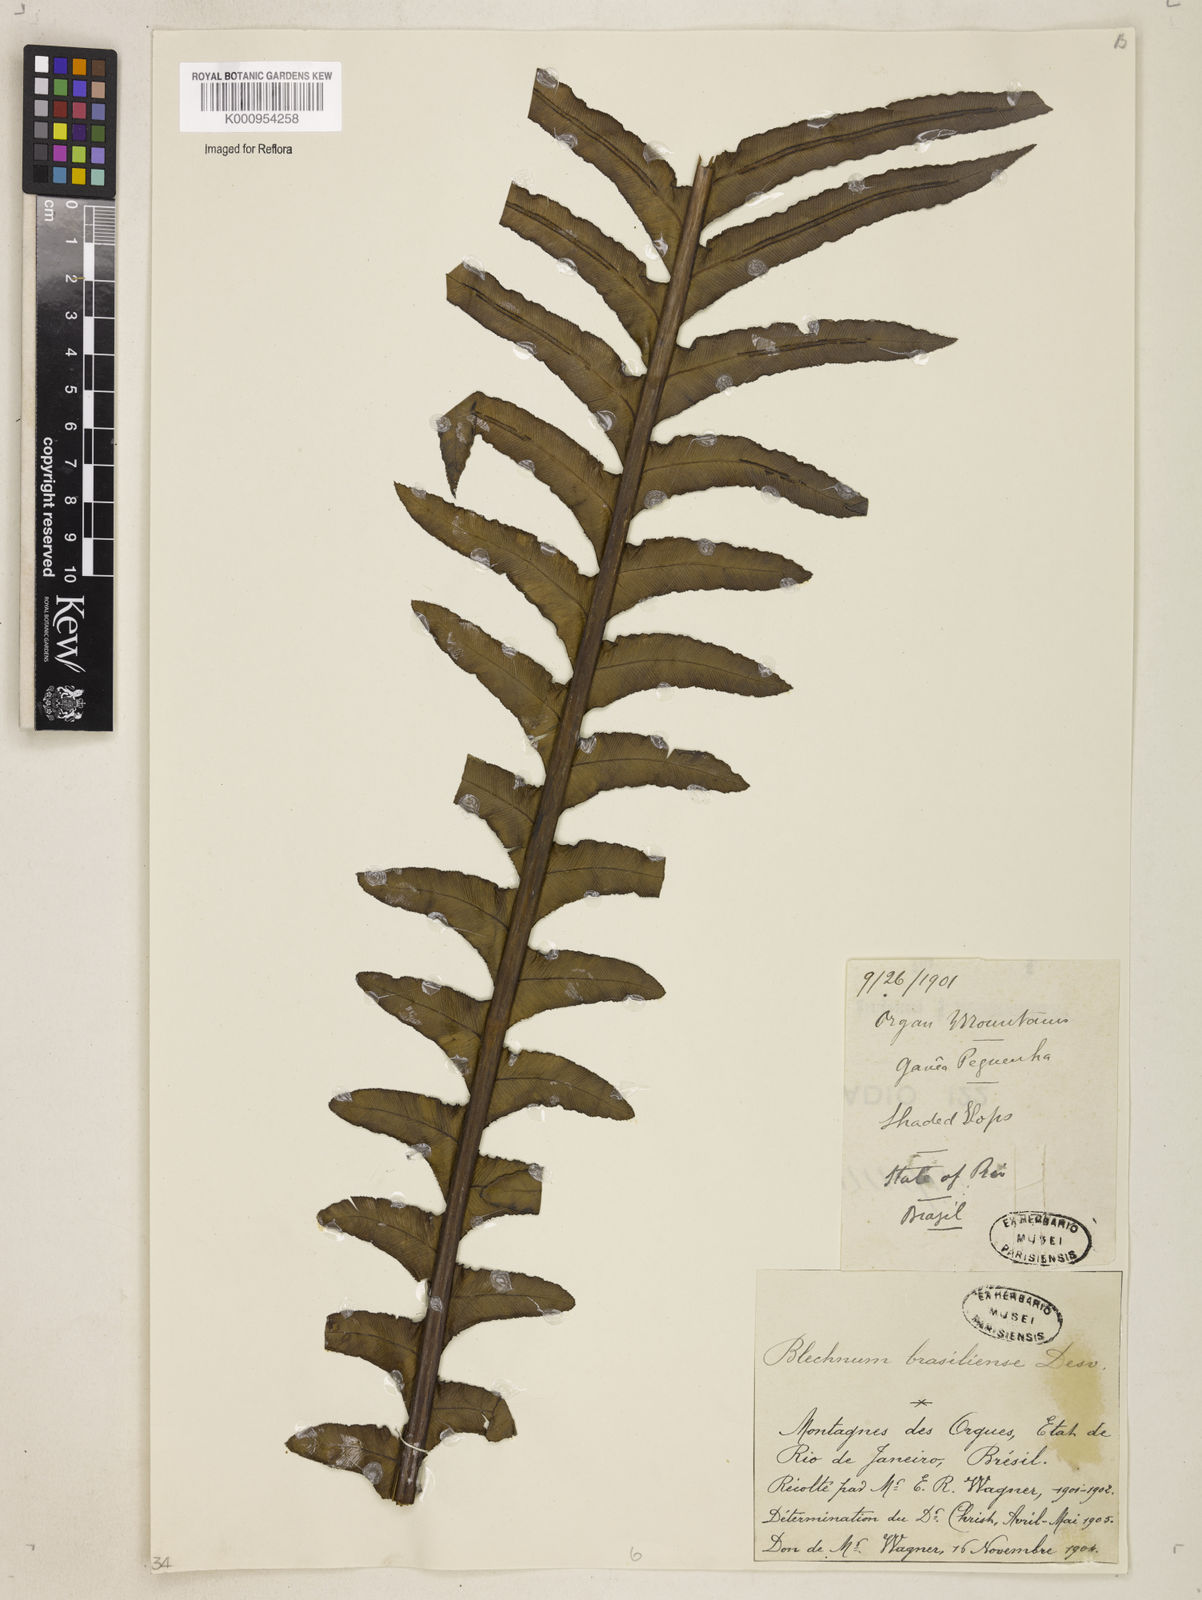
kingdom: Plantae
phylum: Tracheophyta
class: Polypodiopsida
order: Polypodiales
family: Blechnaceae
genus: Neoblechnum
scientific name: Neoblechnum brasiliense
